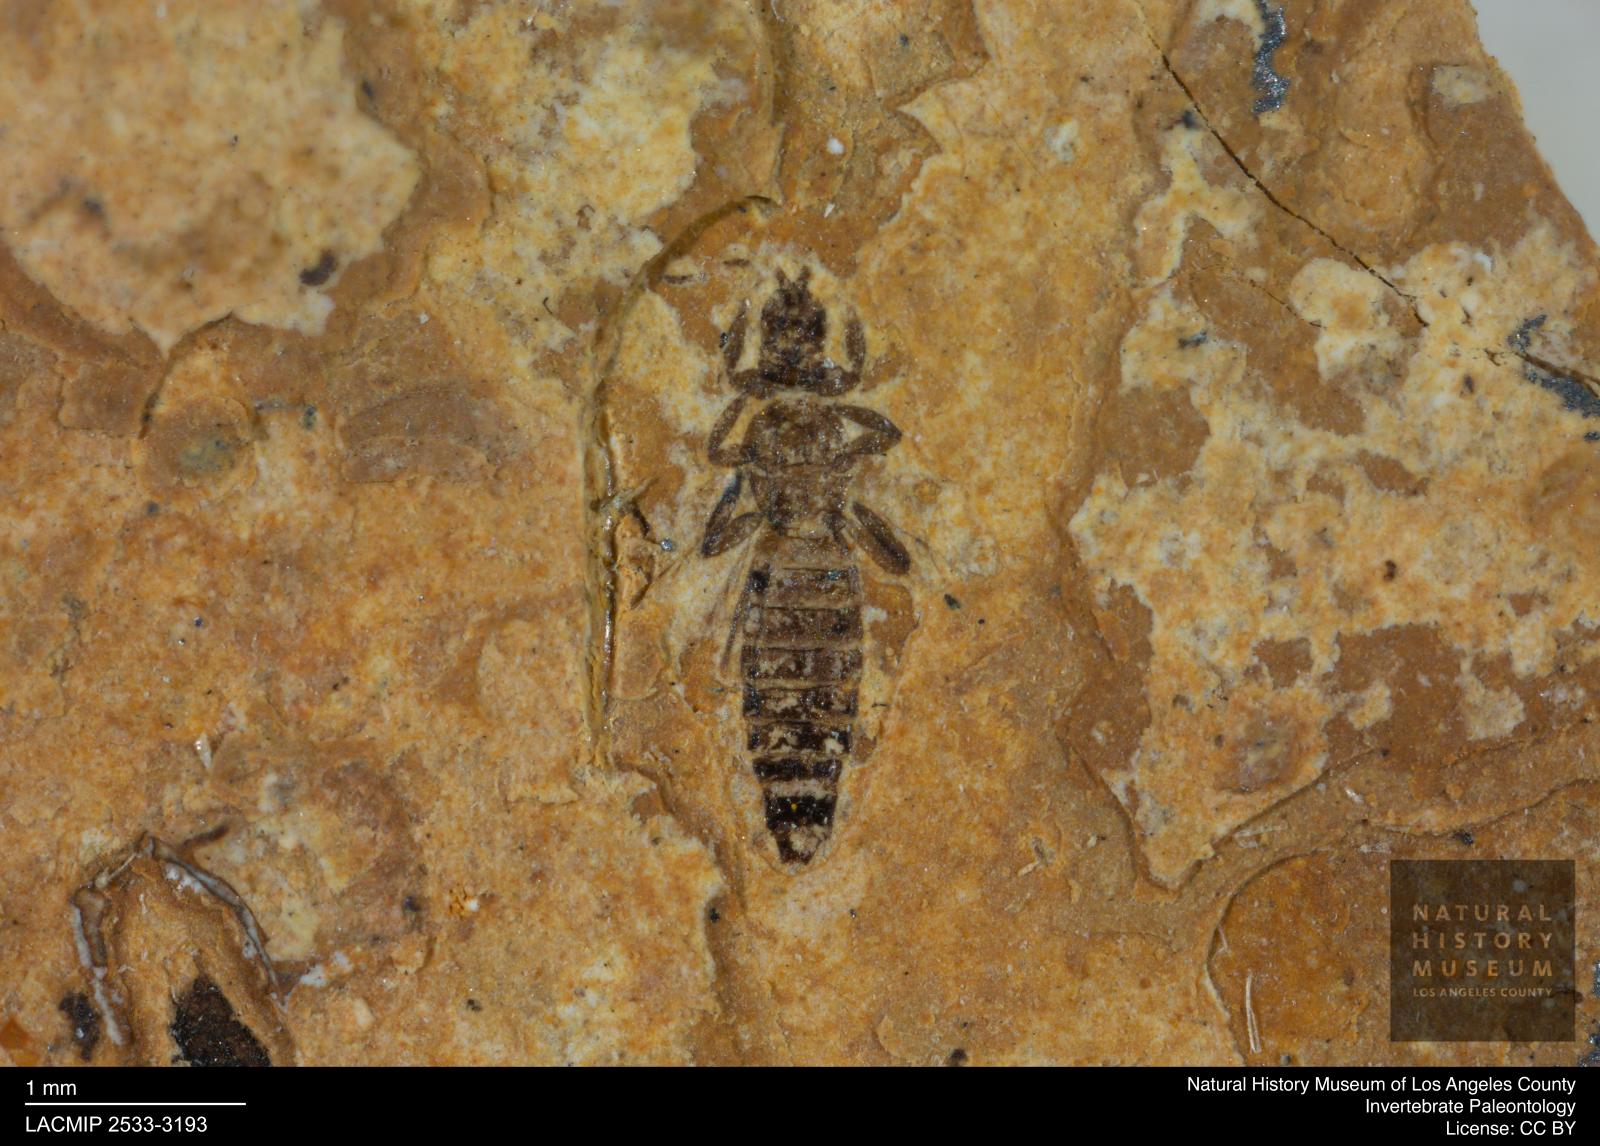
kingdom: Animalia
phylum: Arthropoda
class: Insecta
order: Thysanoptera
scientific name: Thysanoptera
